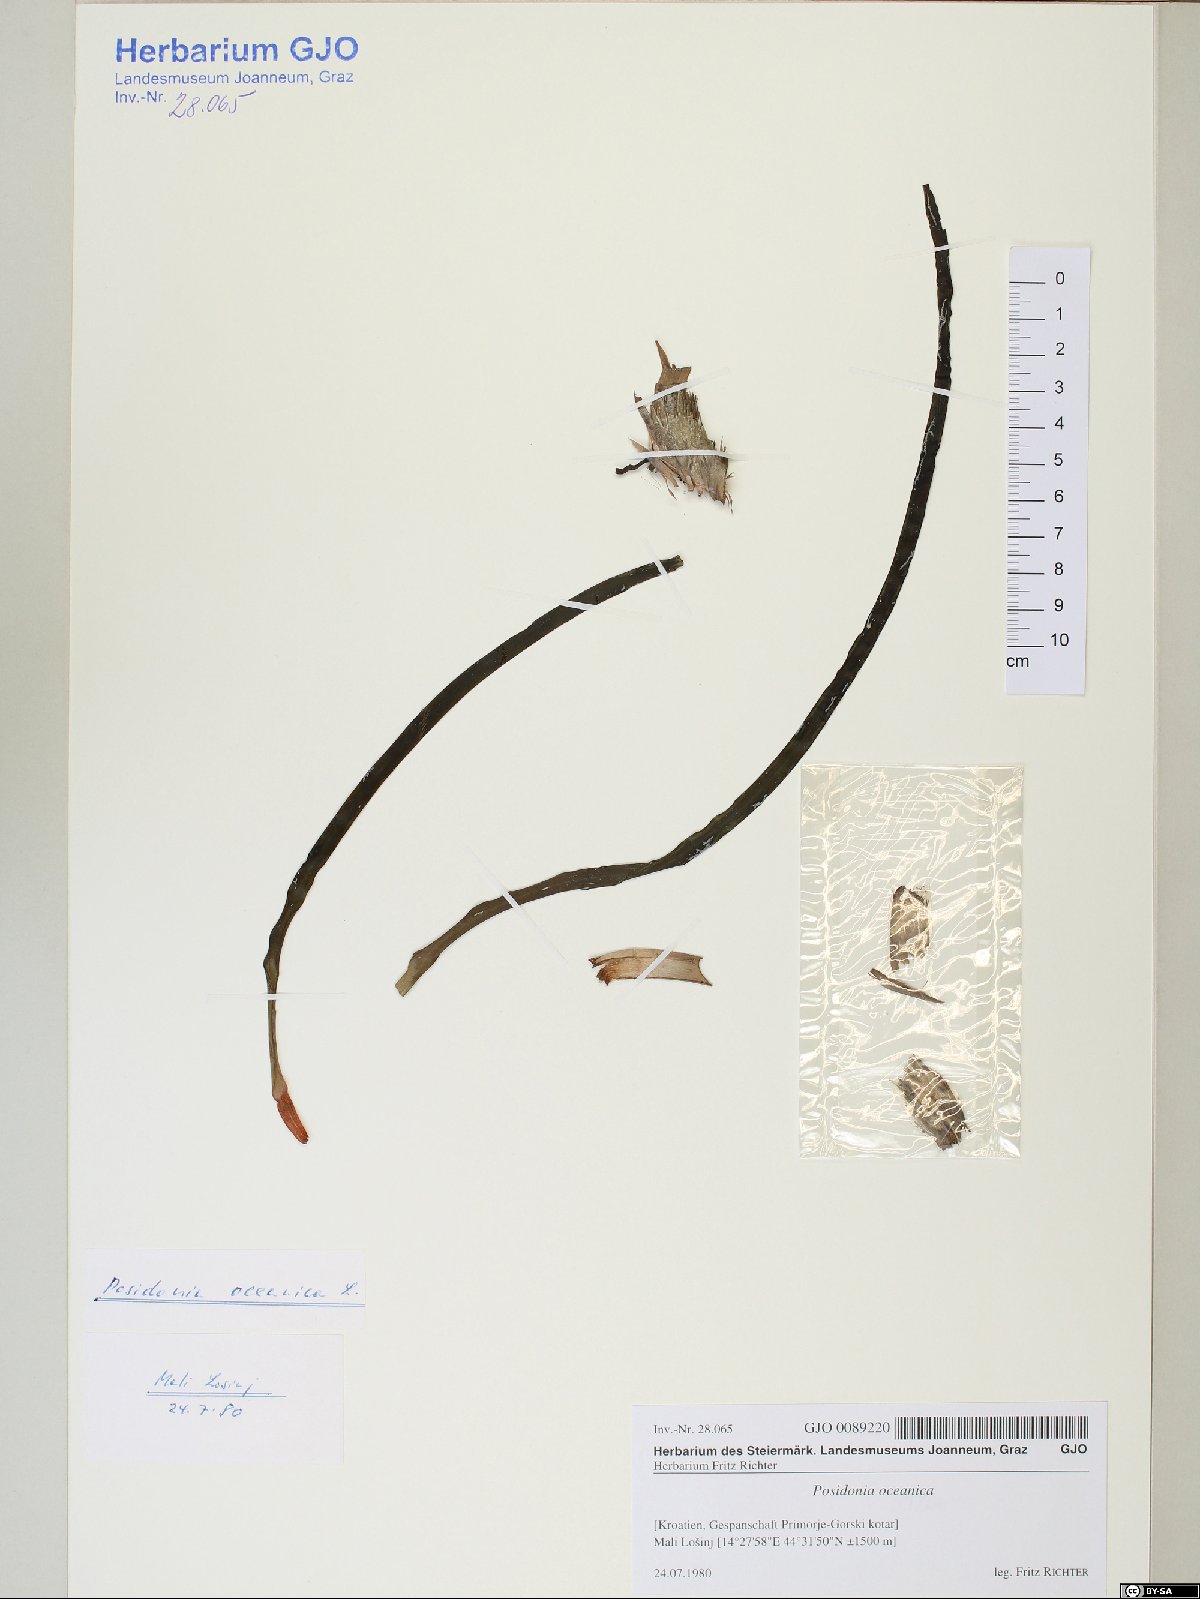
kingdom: Plantae
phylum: Tracheophyta
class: Liliopsida
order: Alismatales
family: Posidoniaceae
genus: Posidonia
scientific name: Posidonia oceanica
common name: Mediterranean tapeweed
